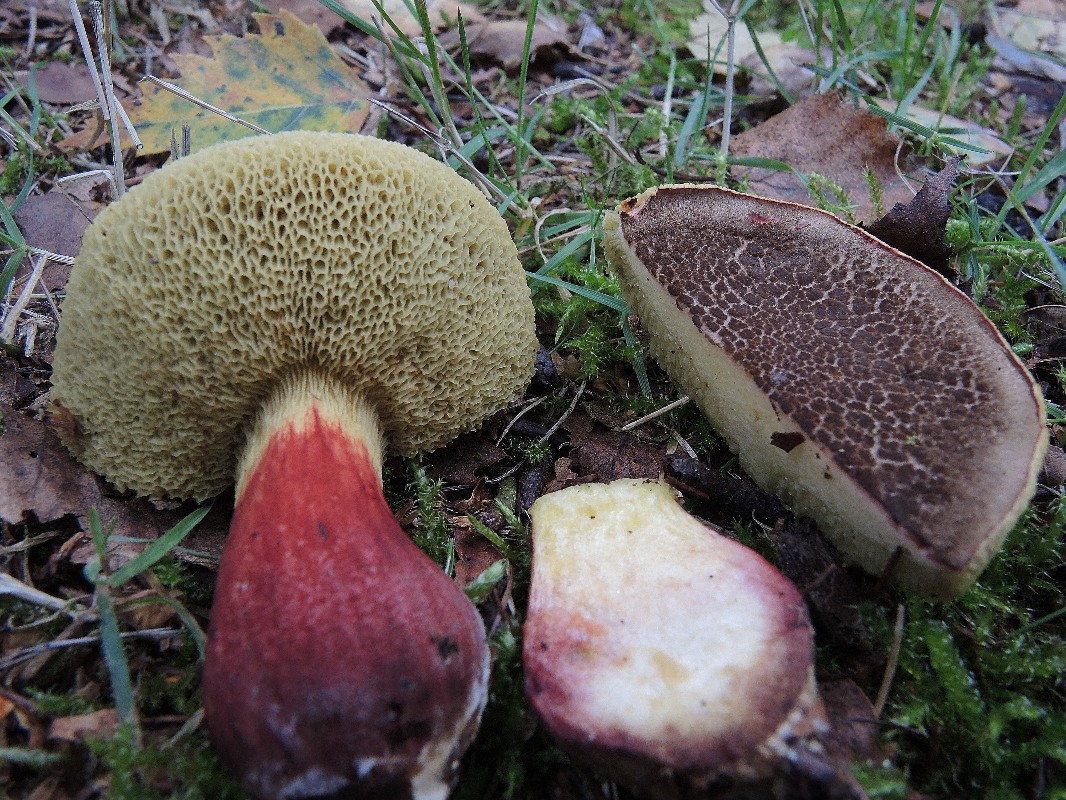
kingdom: Fungi
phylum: Basidiomycota
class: Agaricomycetes
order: Boletales
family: Boletaceae
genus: Xerocomellus
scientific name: Xerocomellus chrysenteron
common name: rødsprukken rørhat
